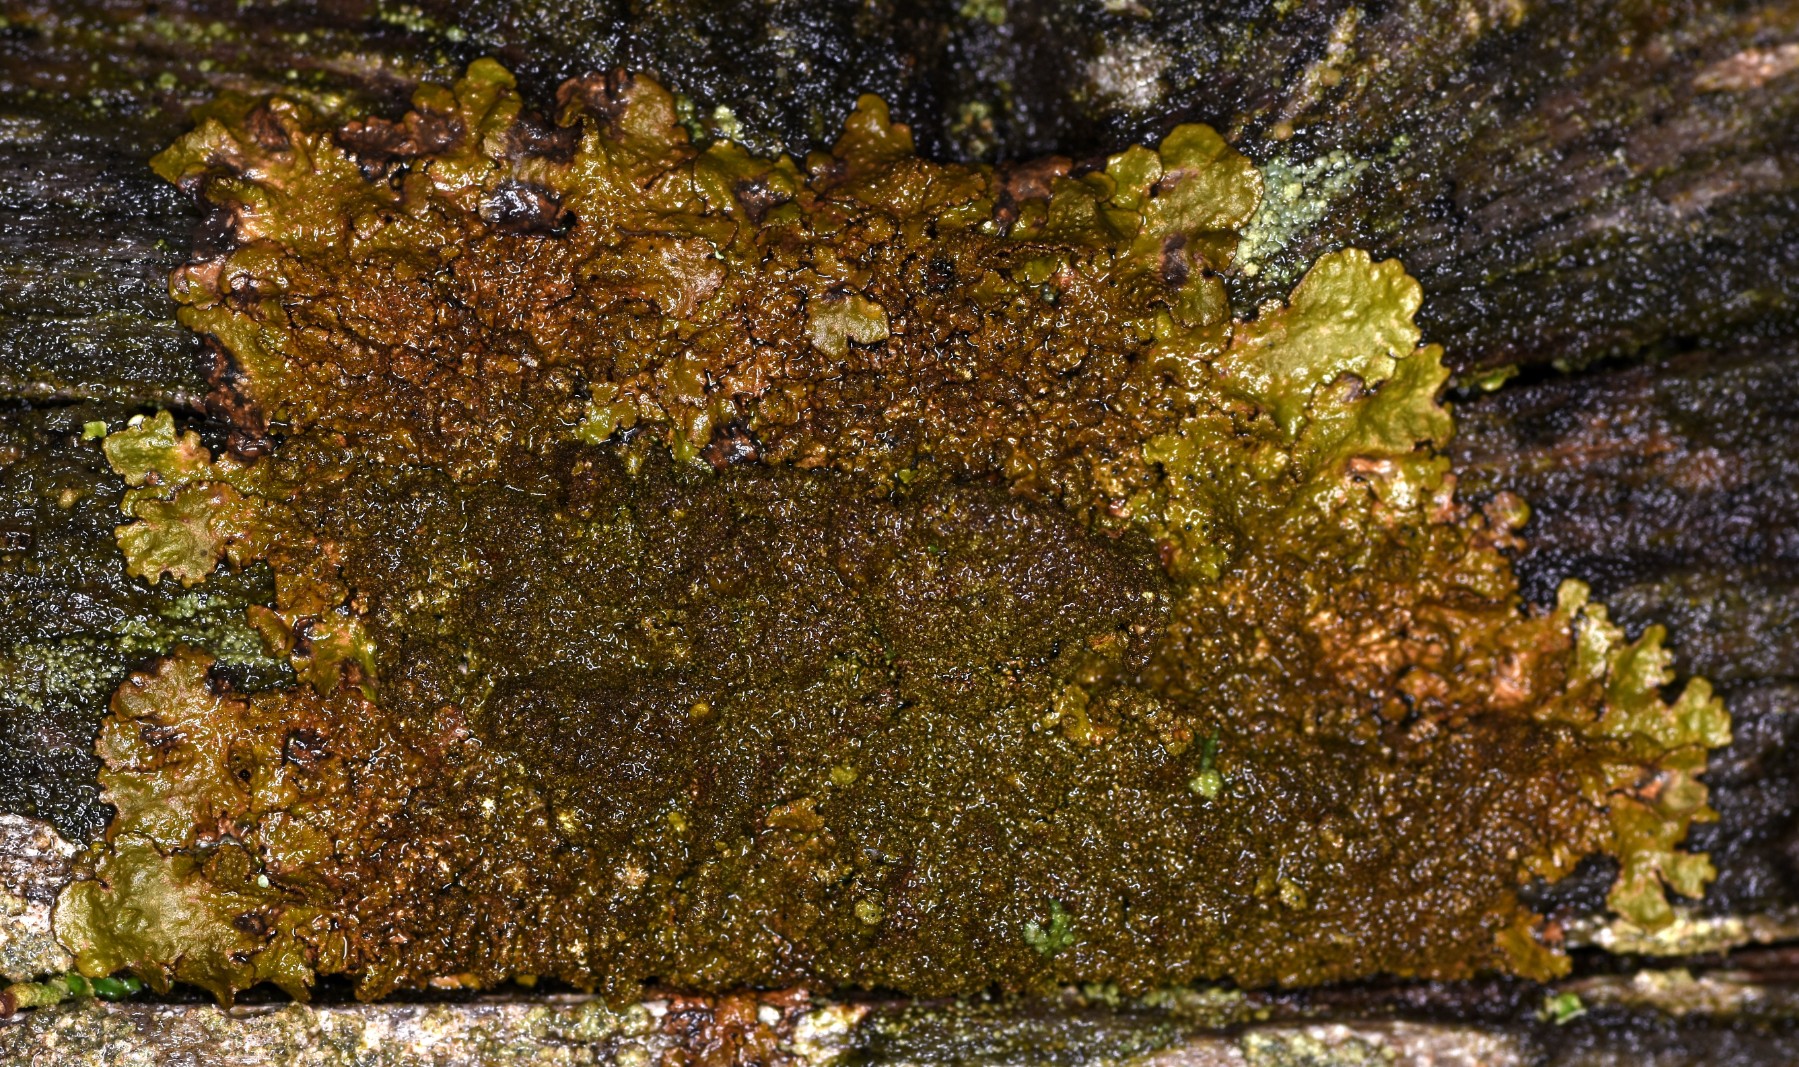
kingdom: Fungi
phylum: Ascomycota
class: Lecanoromycetes
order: Lecanorales
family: Parmeliaceae
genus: Melanelixia
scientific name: Melanelixia glabratula
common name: glinsende skållav
